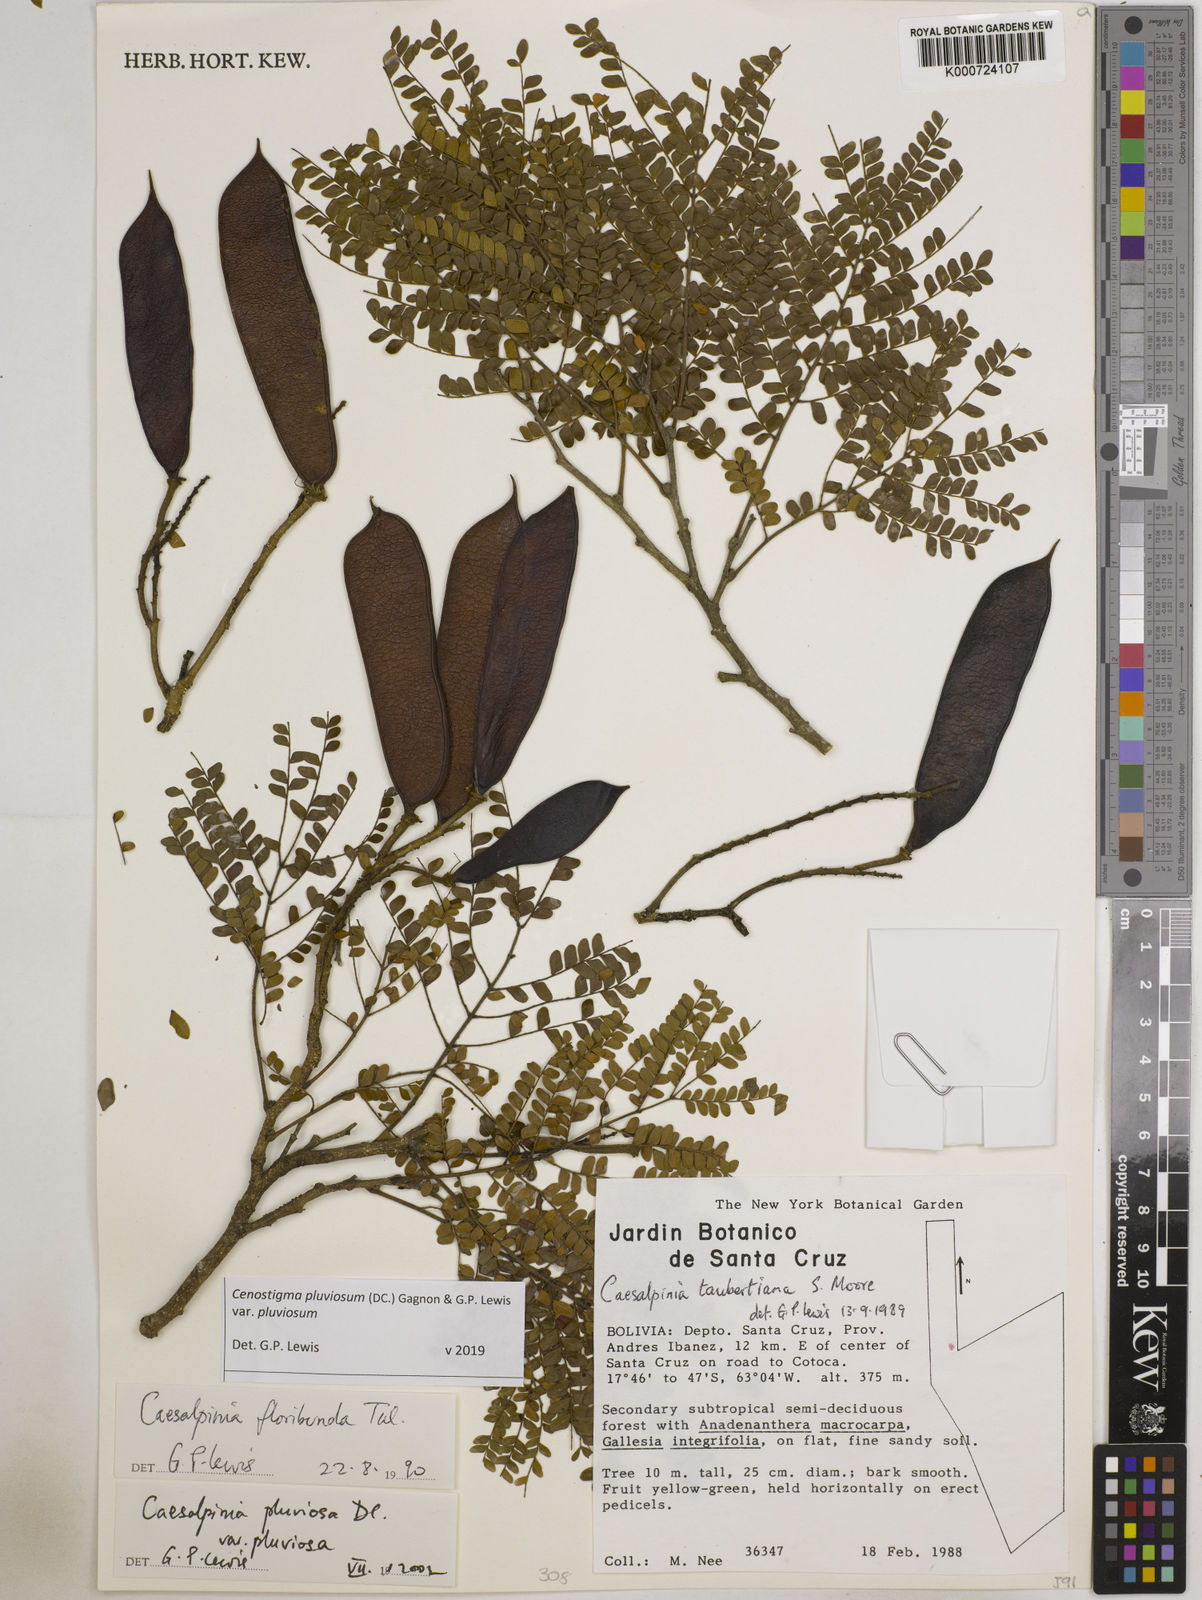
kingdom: Plantae
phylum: Tracheophyta
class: Magnoliopsida
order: Fabales
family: Fabaceae
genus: Cenostigma
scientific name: Cenostigma pluviosum
